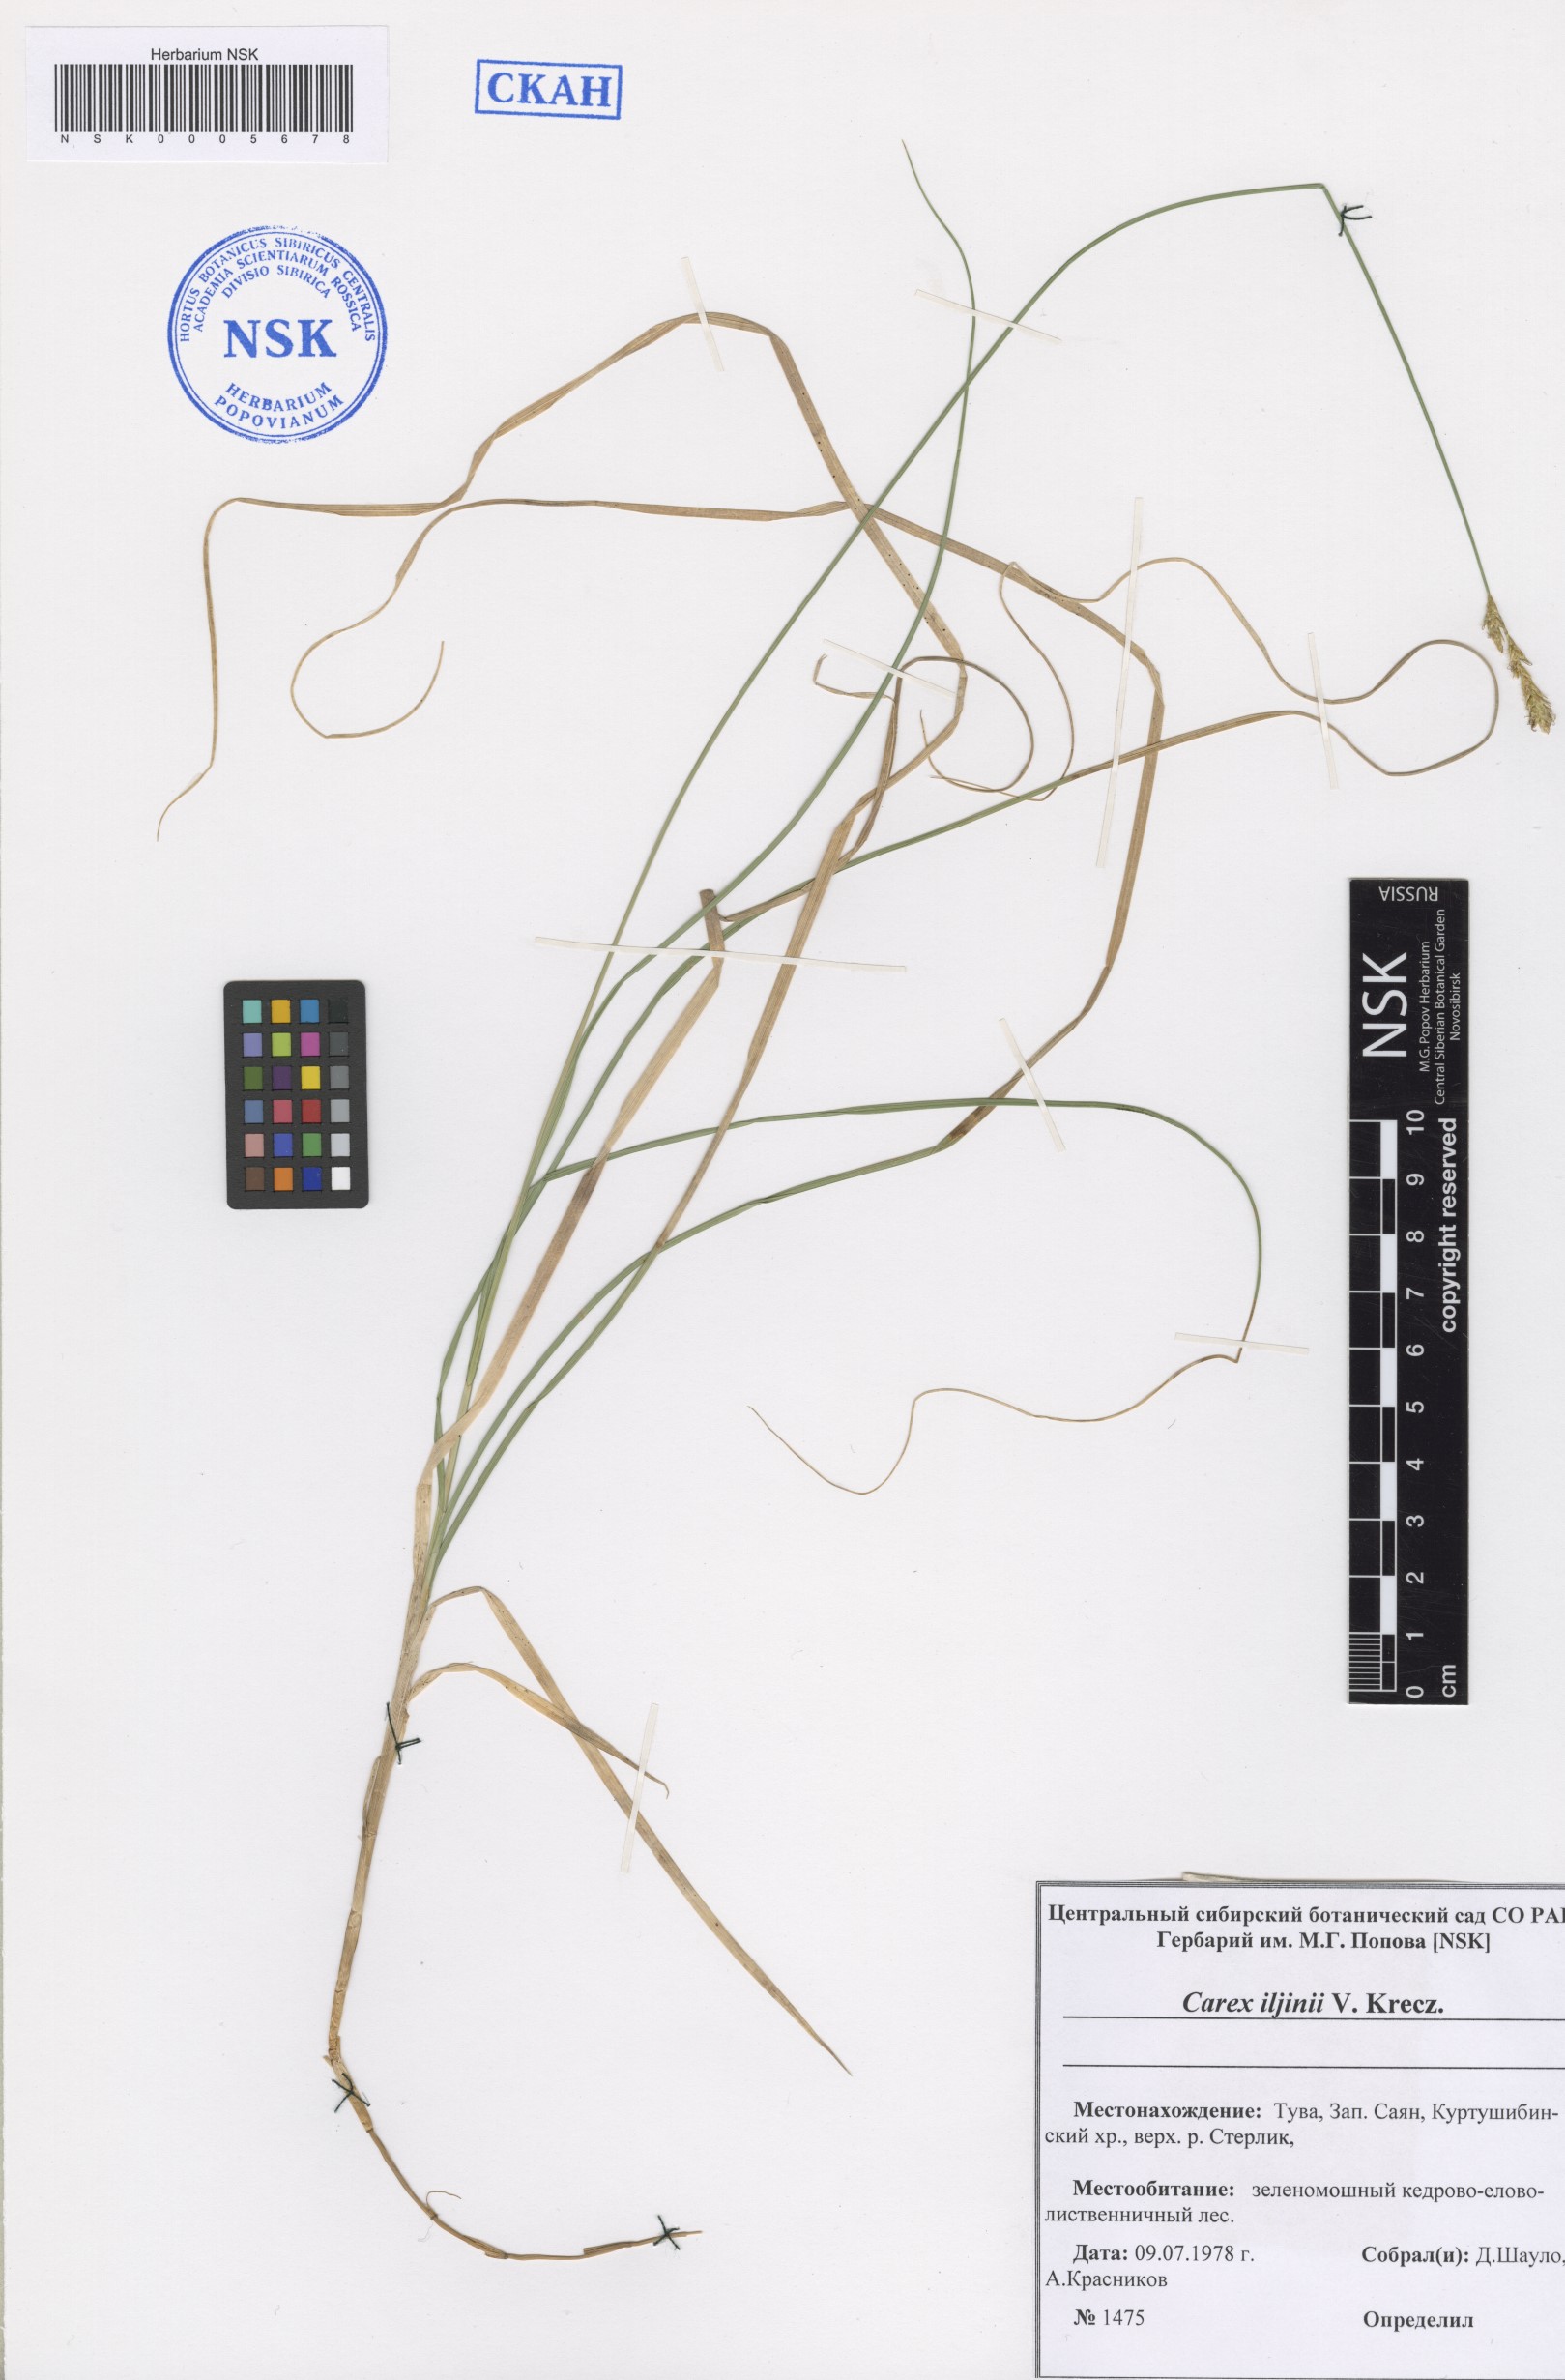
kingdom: Plantae
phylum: Tracheophyta
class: Liliopsida
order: Poales
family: Cyperaceae
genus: Carex
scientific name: Carex iljinii
